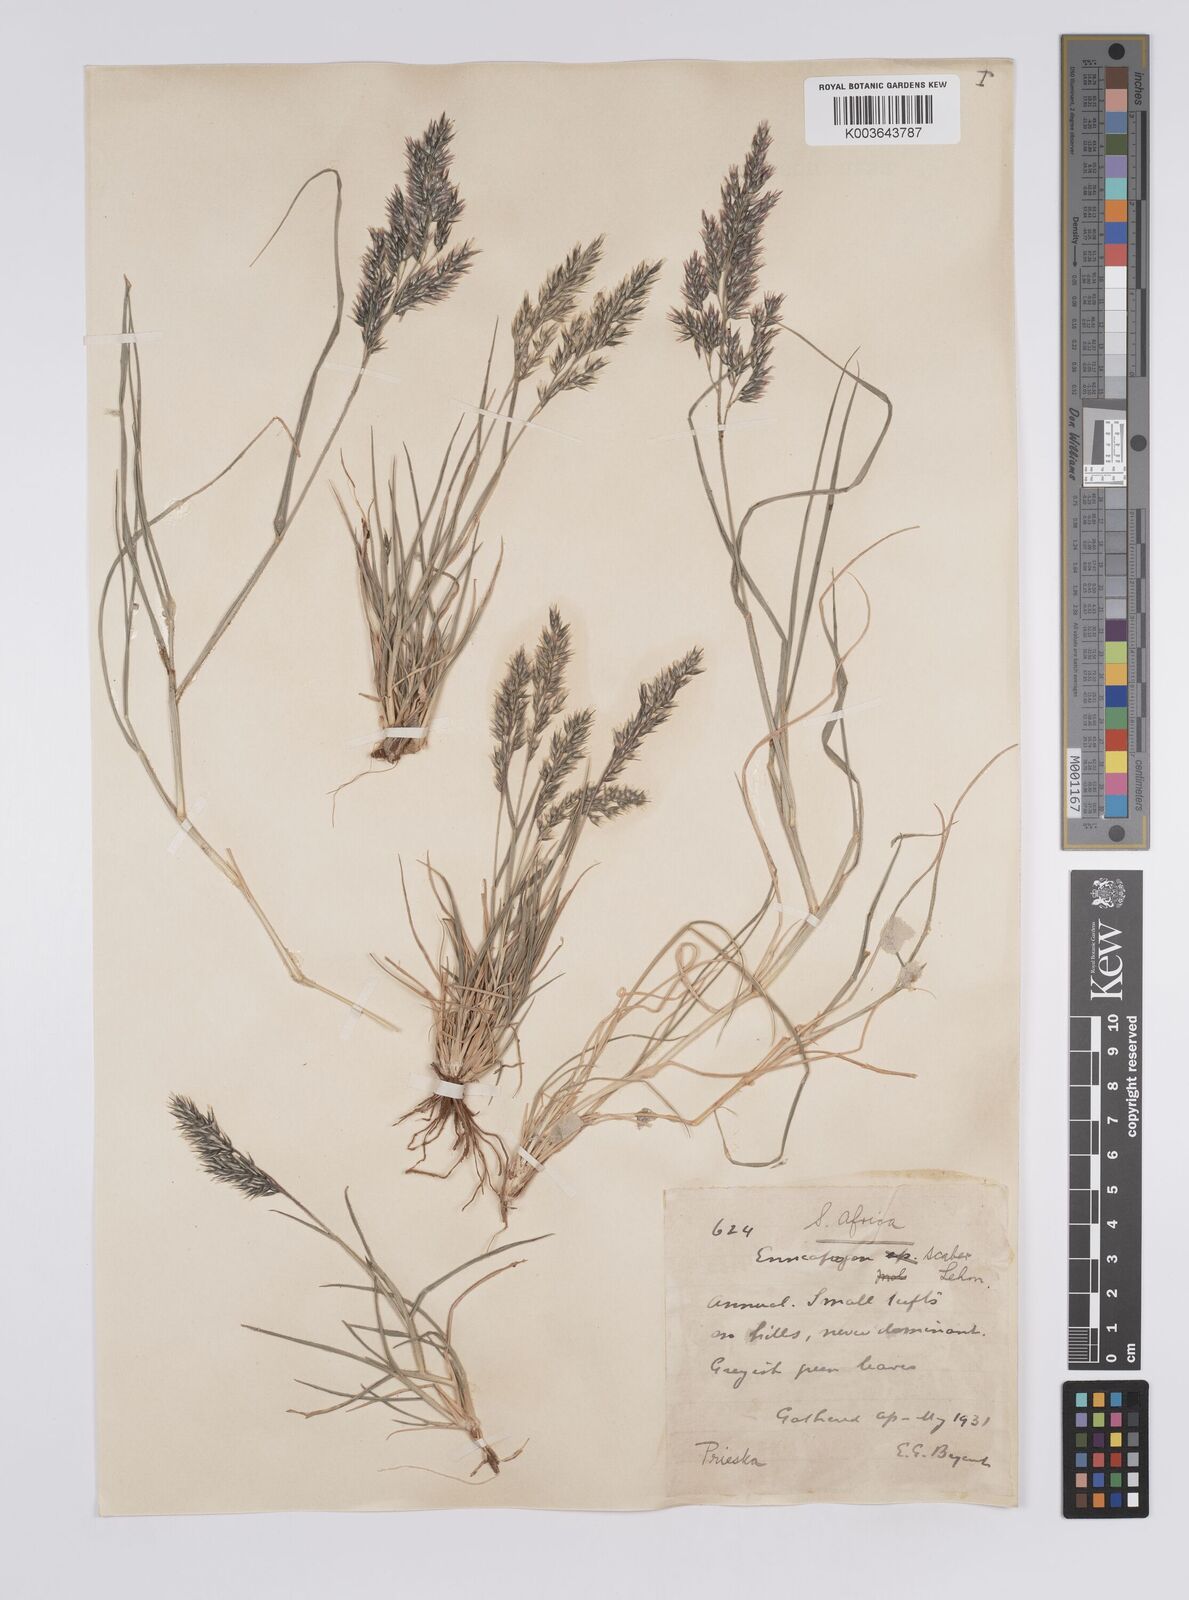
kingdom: Plantae
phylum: Tracheophyta
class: Liliopsida
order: Poales
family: Poaceae
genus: Enneapogon
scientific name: Enneapogon scaber
